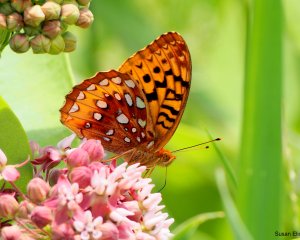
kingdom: Animalia
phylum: Arthropoda
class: Insecta
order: Lepidoptera
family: Nymphalidae
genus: Speyeria
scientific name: Speyeria cybele
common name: Great Spangled Fritillary
